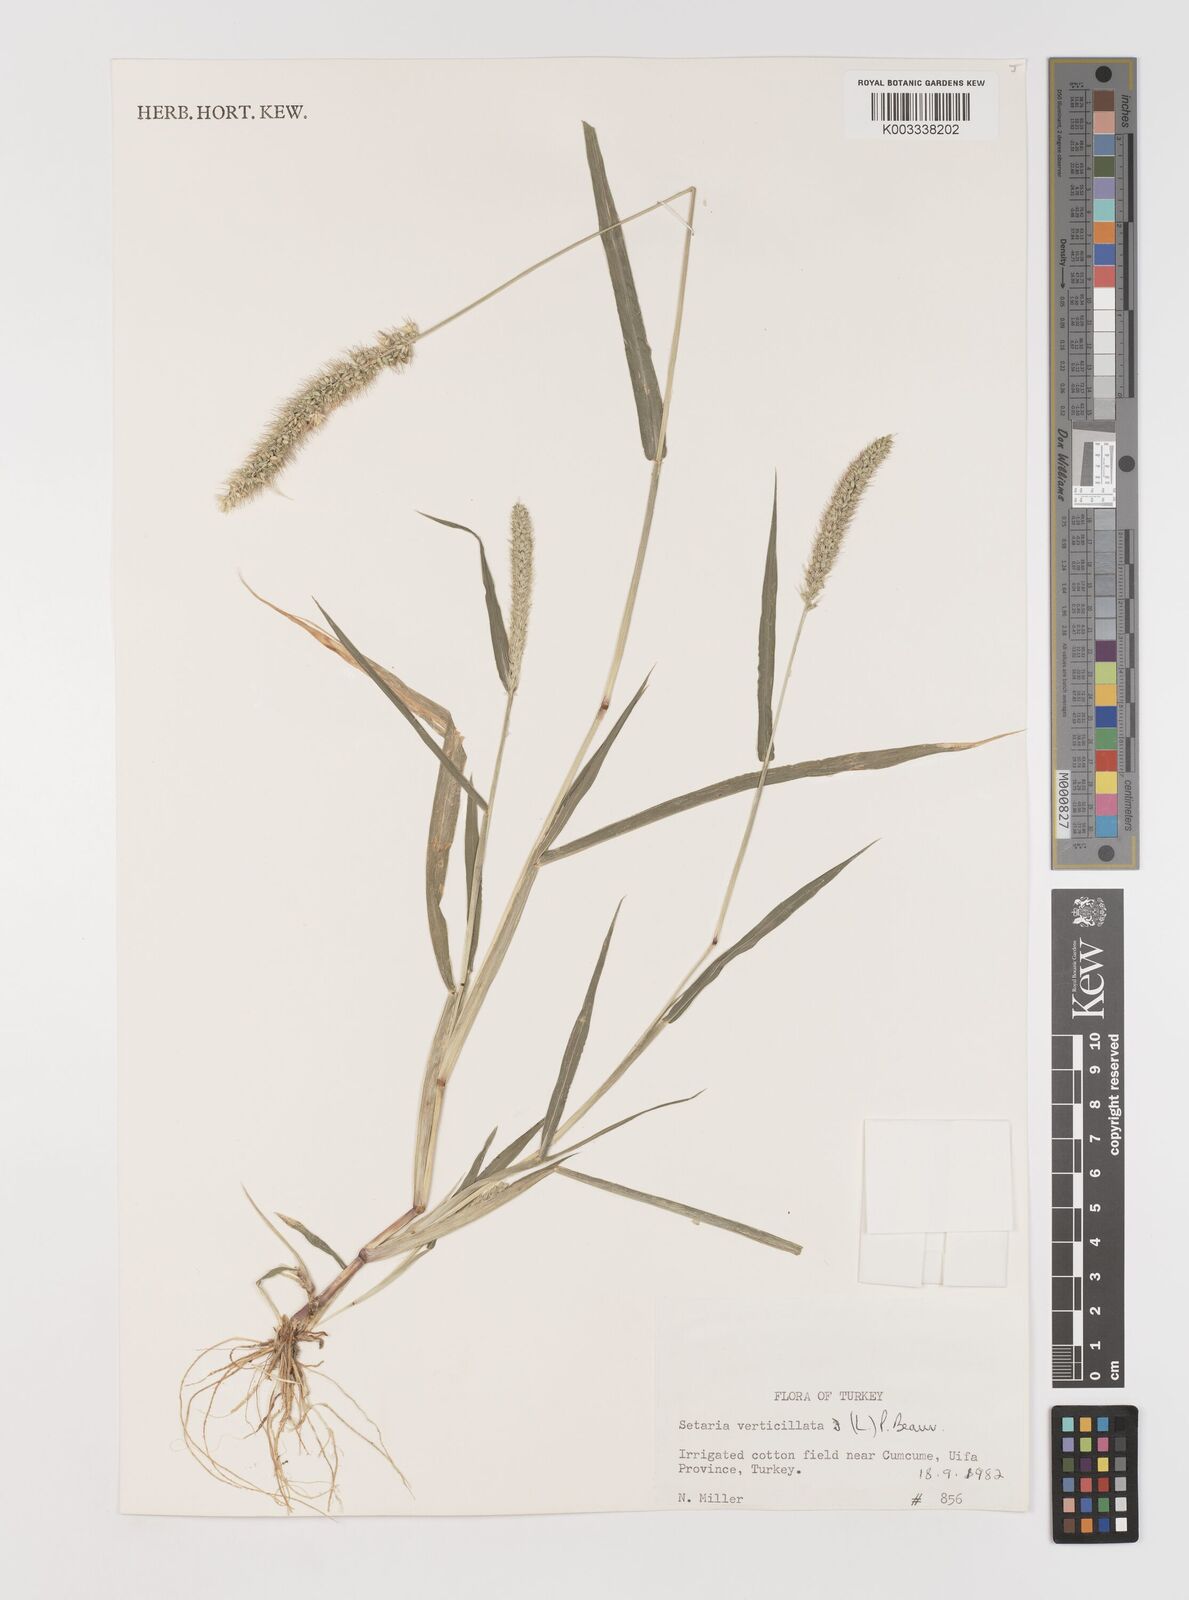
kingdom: Plantae
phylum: Tracheophyta
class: Liliopsida
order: Poales
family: Poaceae
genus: Setaria
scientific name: Setaria verticillata
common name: Hooked bristlegrass
